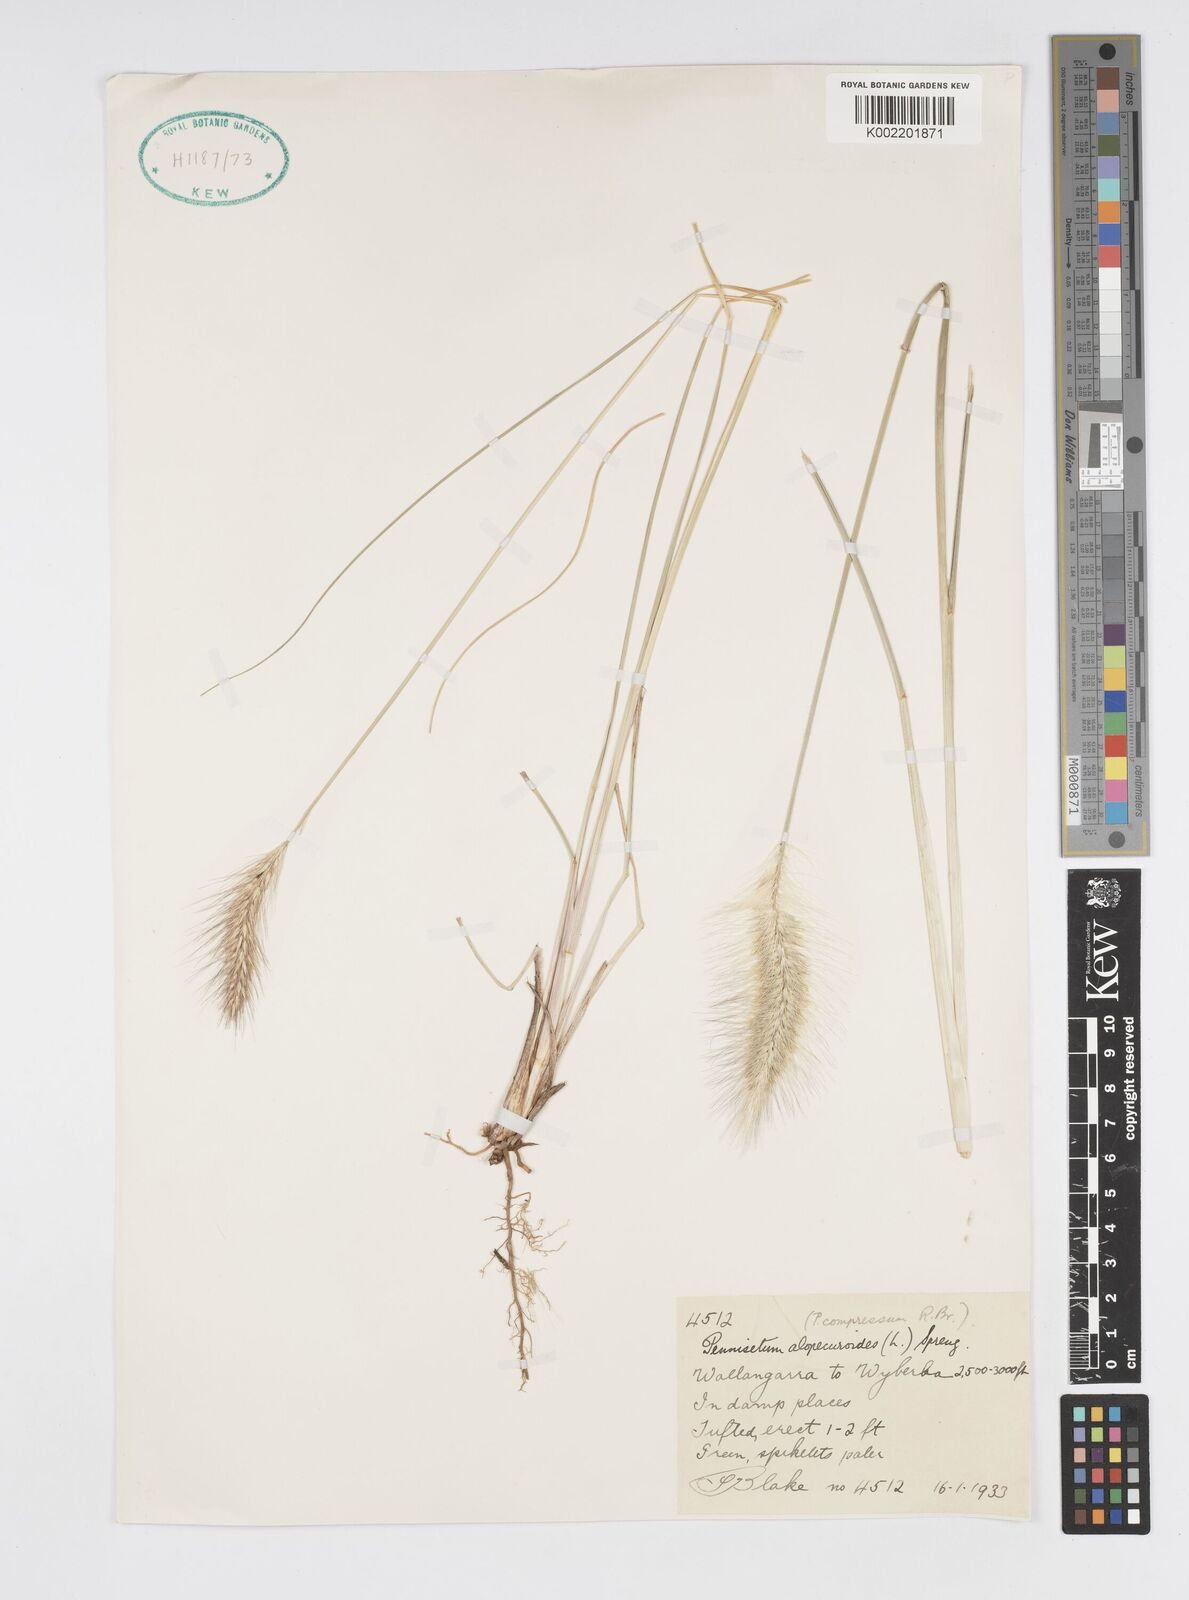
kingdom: Plantae
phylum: Tracheophyta
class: Liliopsida
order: Poales
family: Poaceae
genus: Cenchrus
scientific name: Cenchrus alopecuroides
